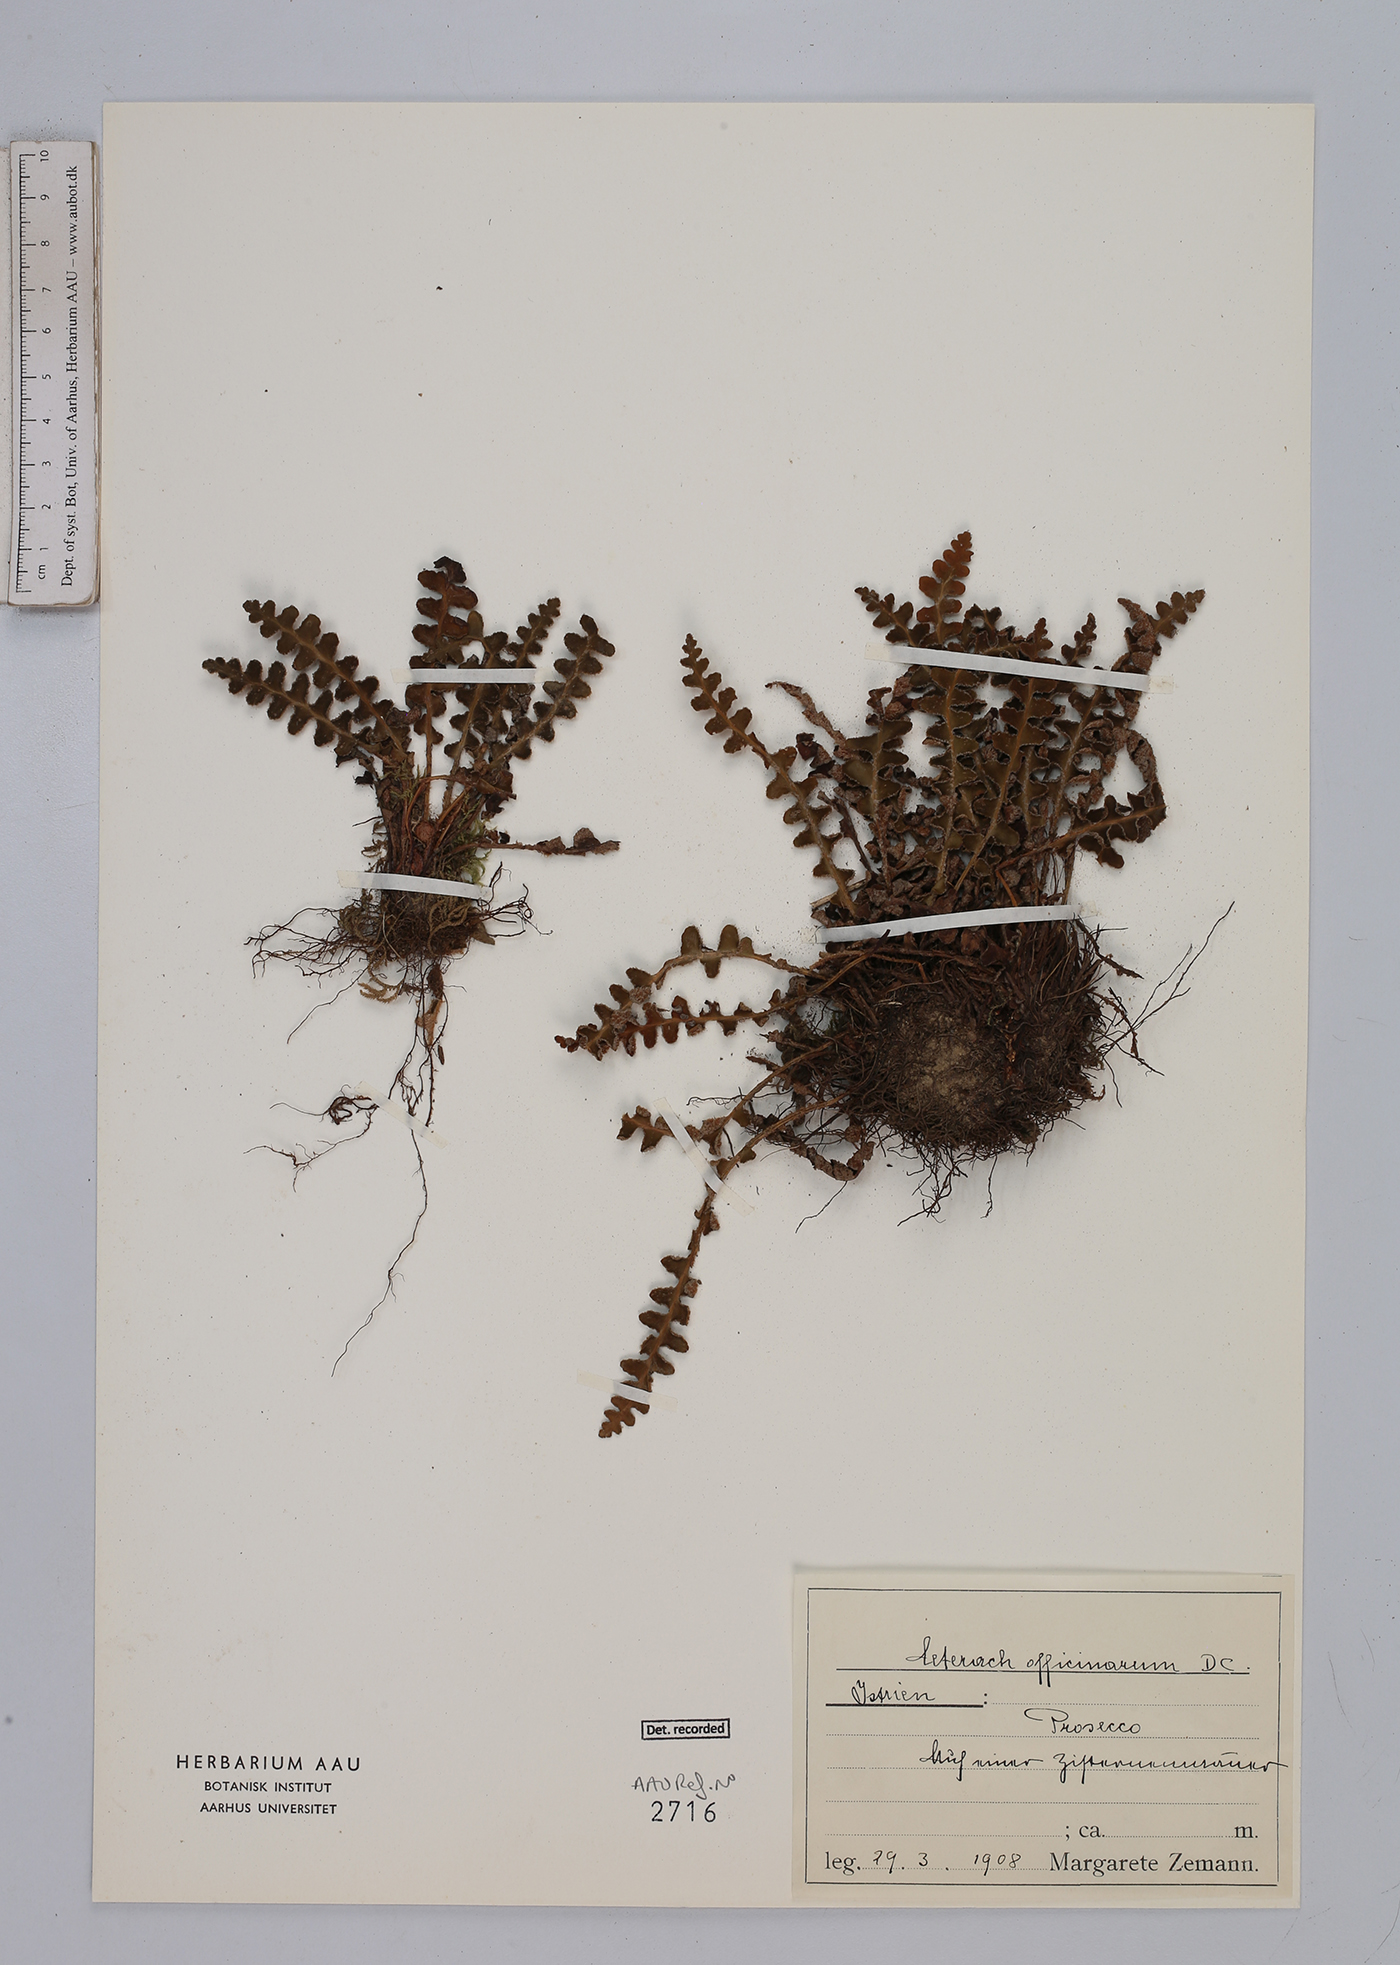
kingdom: Plantae
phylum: Tracheophyta
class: Polypodiopsida
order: Polypodiales
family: Aspleniaceae
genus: Asplenium
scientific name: Asplenium ceterach
